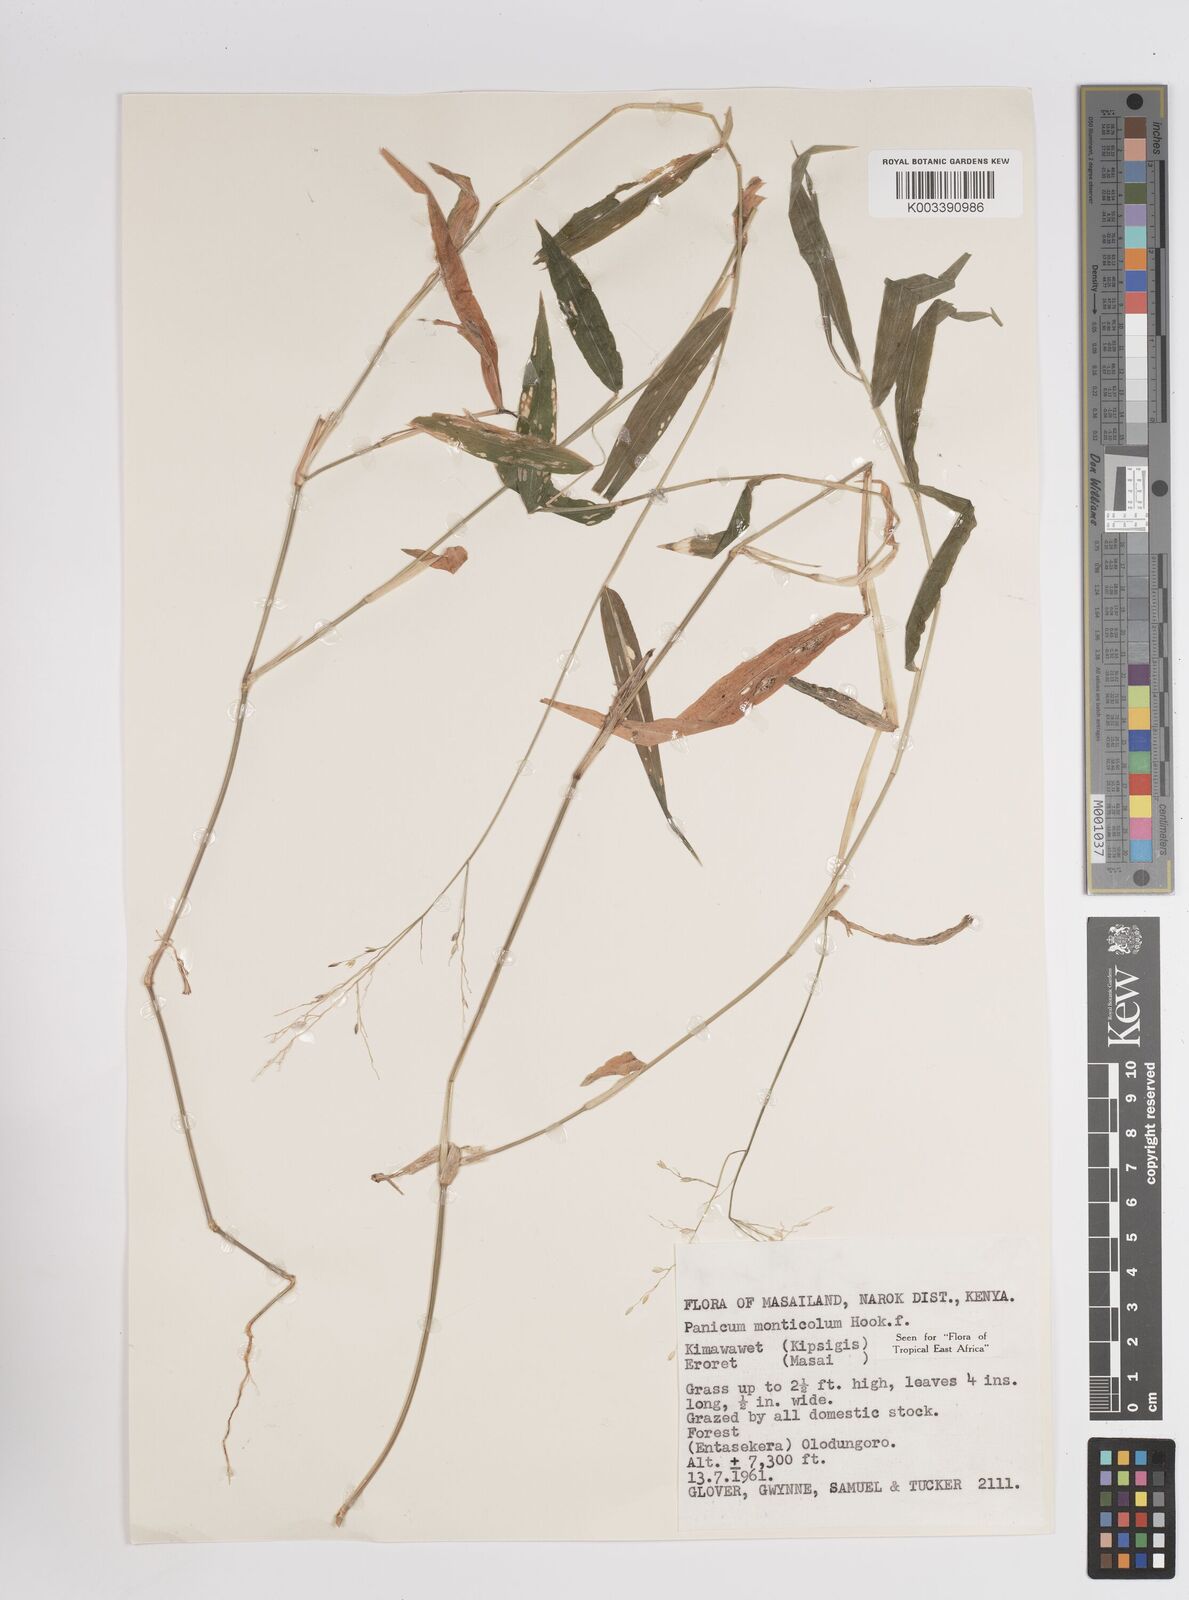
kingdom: Plantae
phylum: Tracheophyta
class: Liliopsida
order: Poales
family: Poaceae
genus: Panicum
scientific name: Panicum monticola
